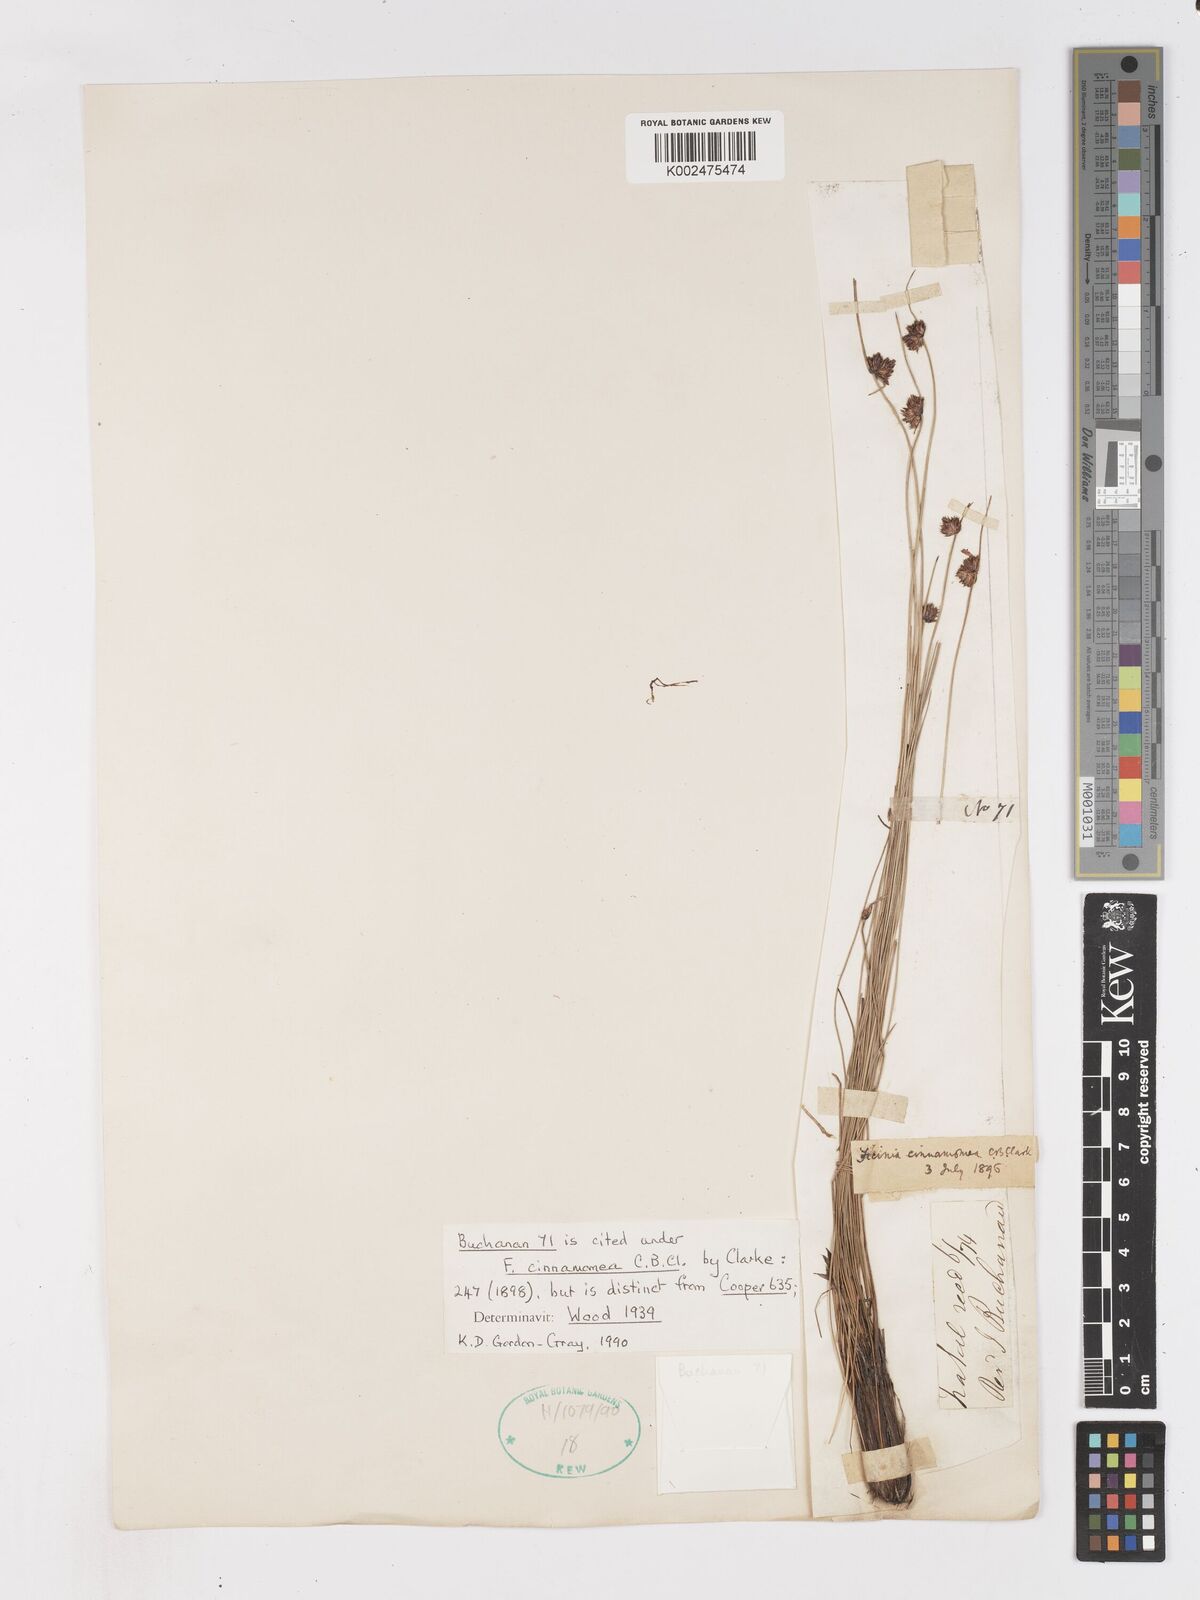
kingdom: Plantae
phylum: Tracheophyta
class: Liliopsida
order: Poales
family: Cyperaceae
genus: Ficinia
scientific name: Ficinia cinnamomea
